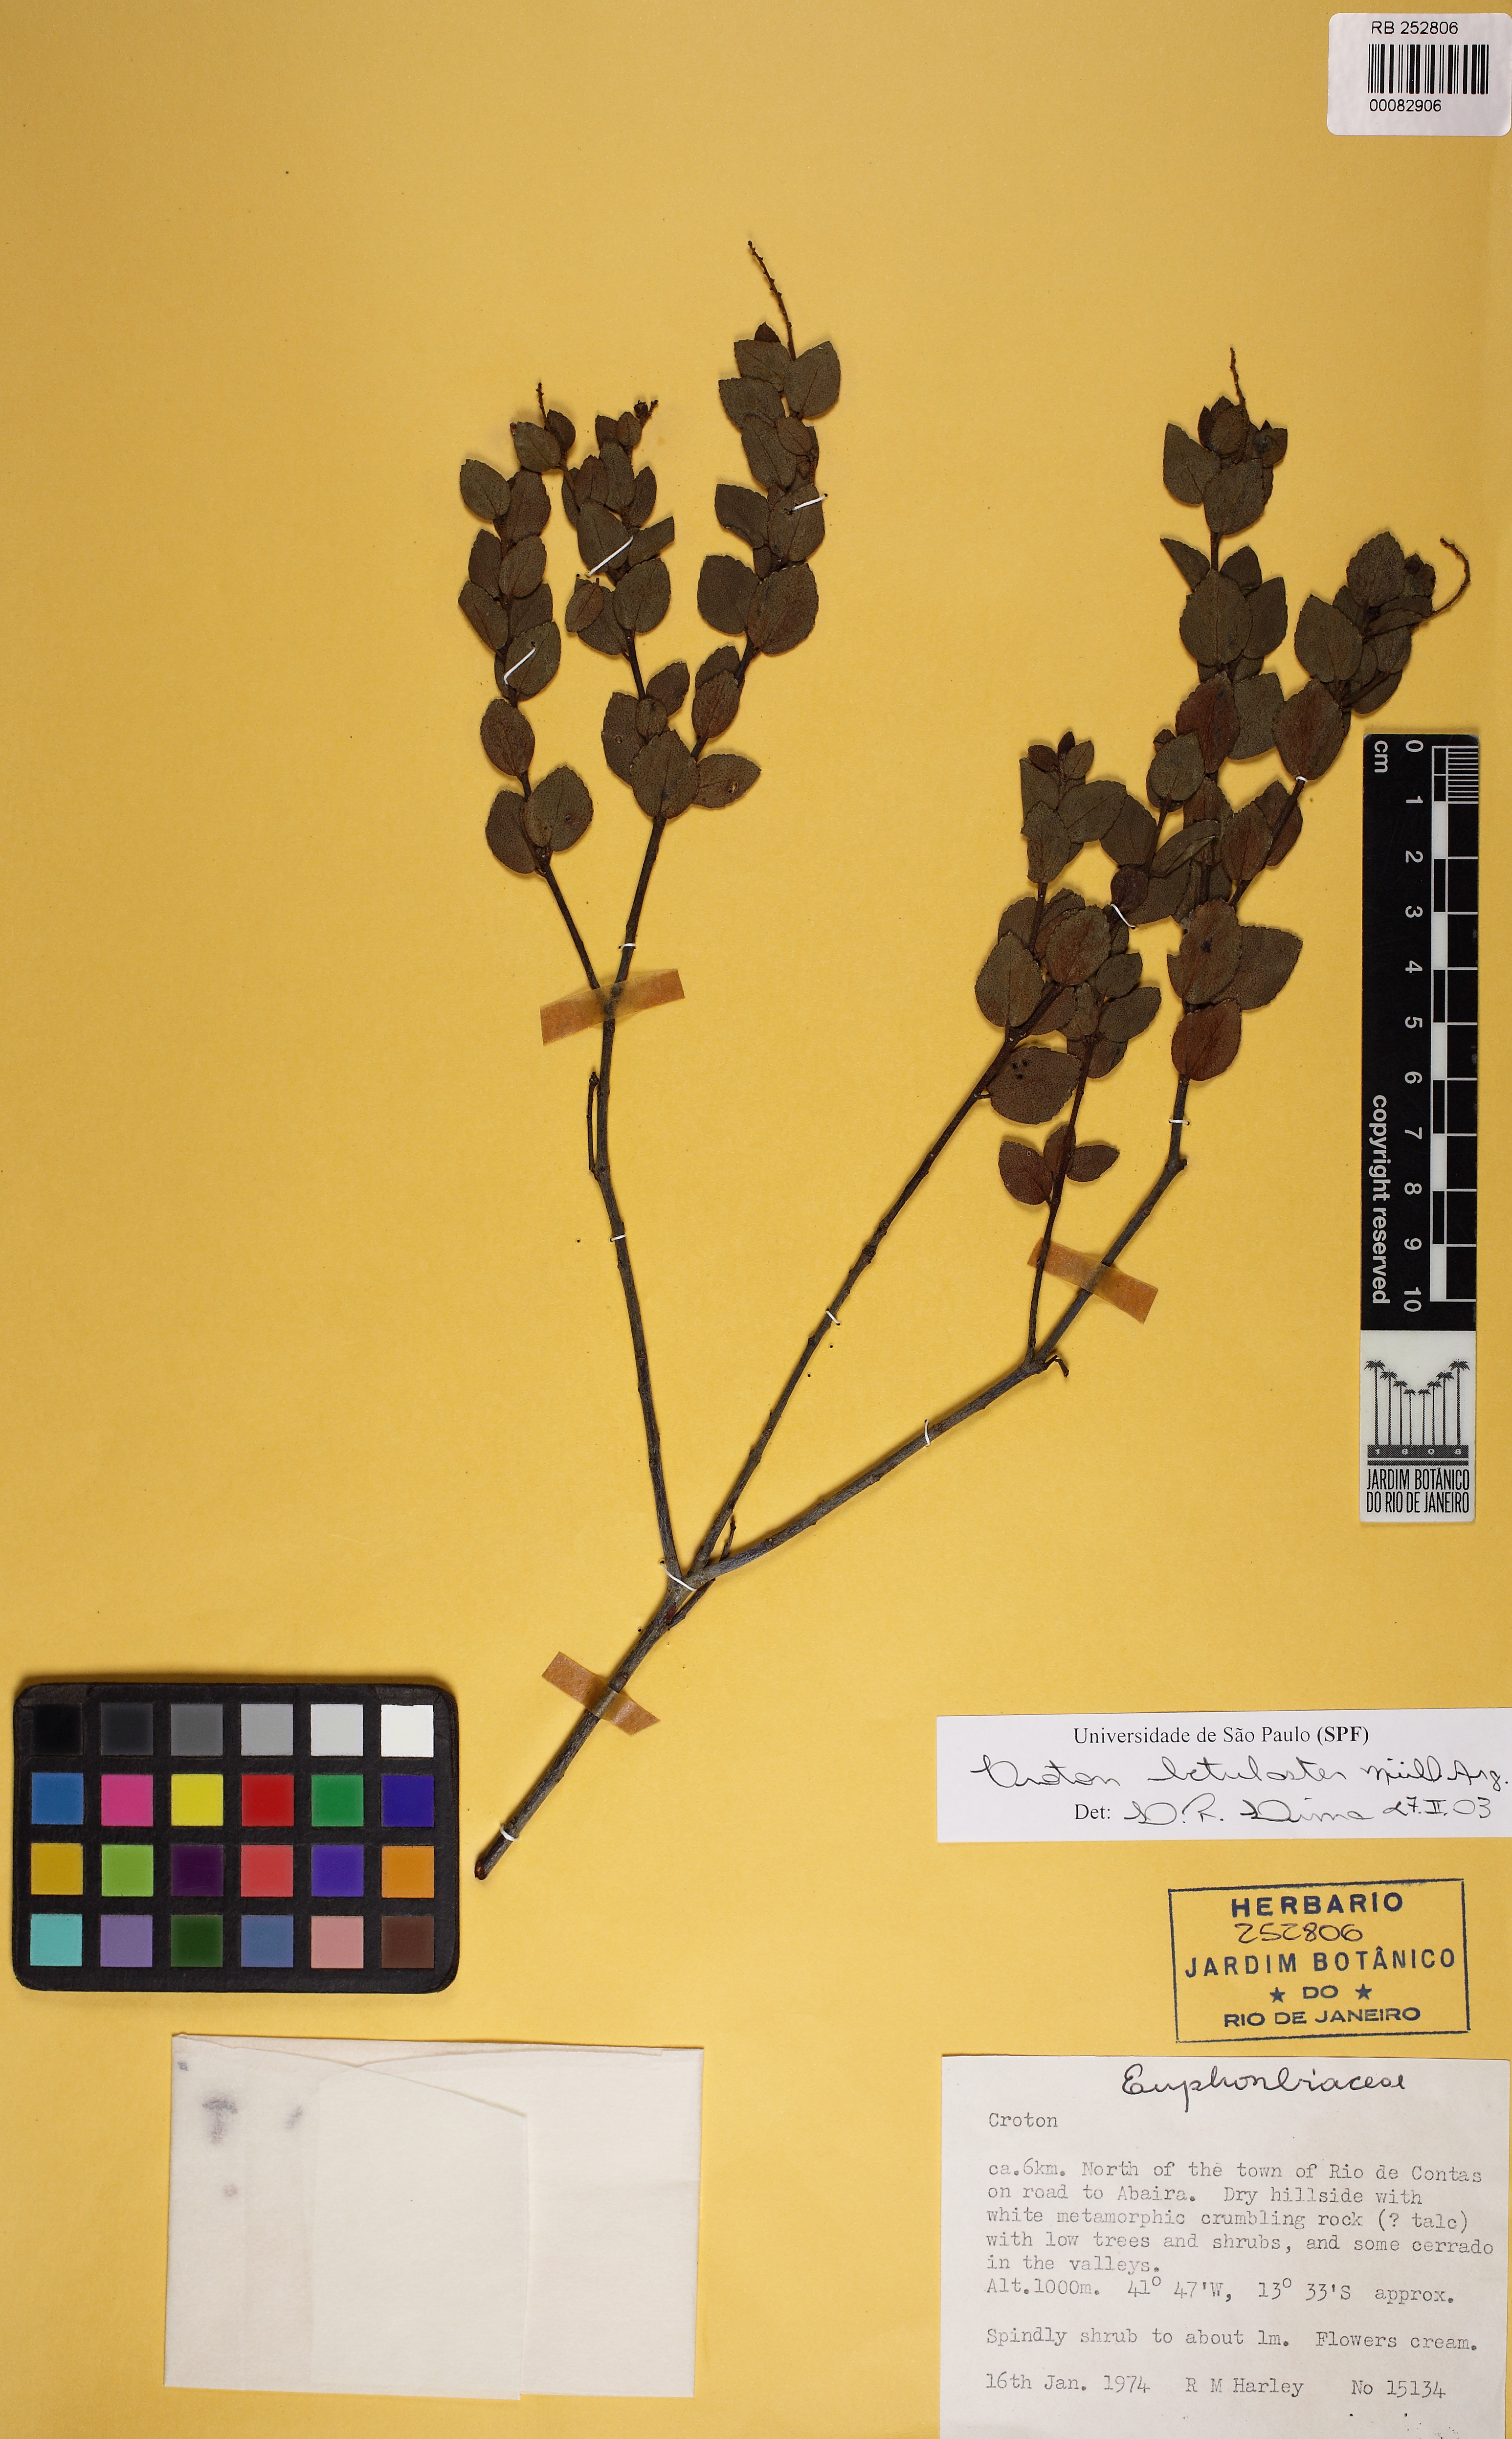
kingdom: Plantae
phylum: Tracheophyta
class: Magnoliopsida
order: Malpighiales
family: Euphorbiaceae
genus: Croton
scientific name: Croton betulaster
